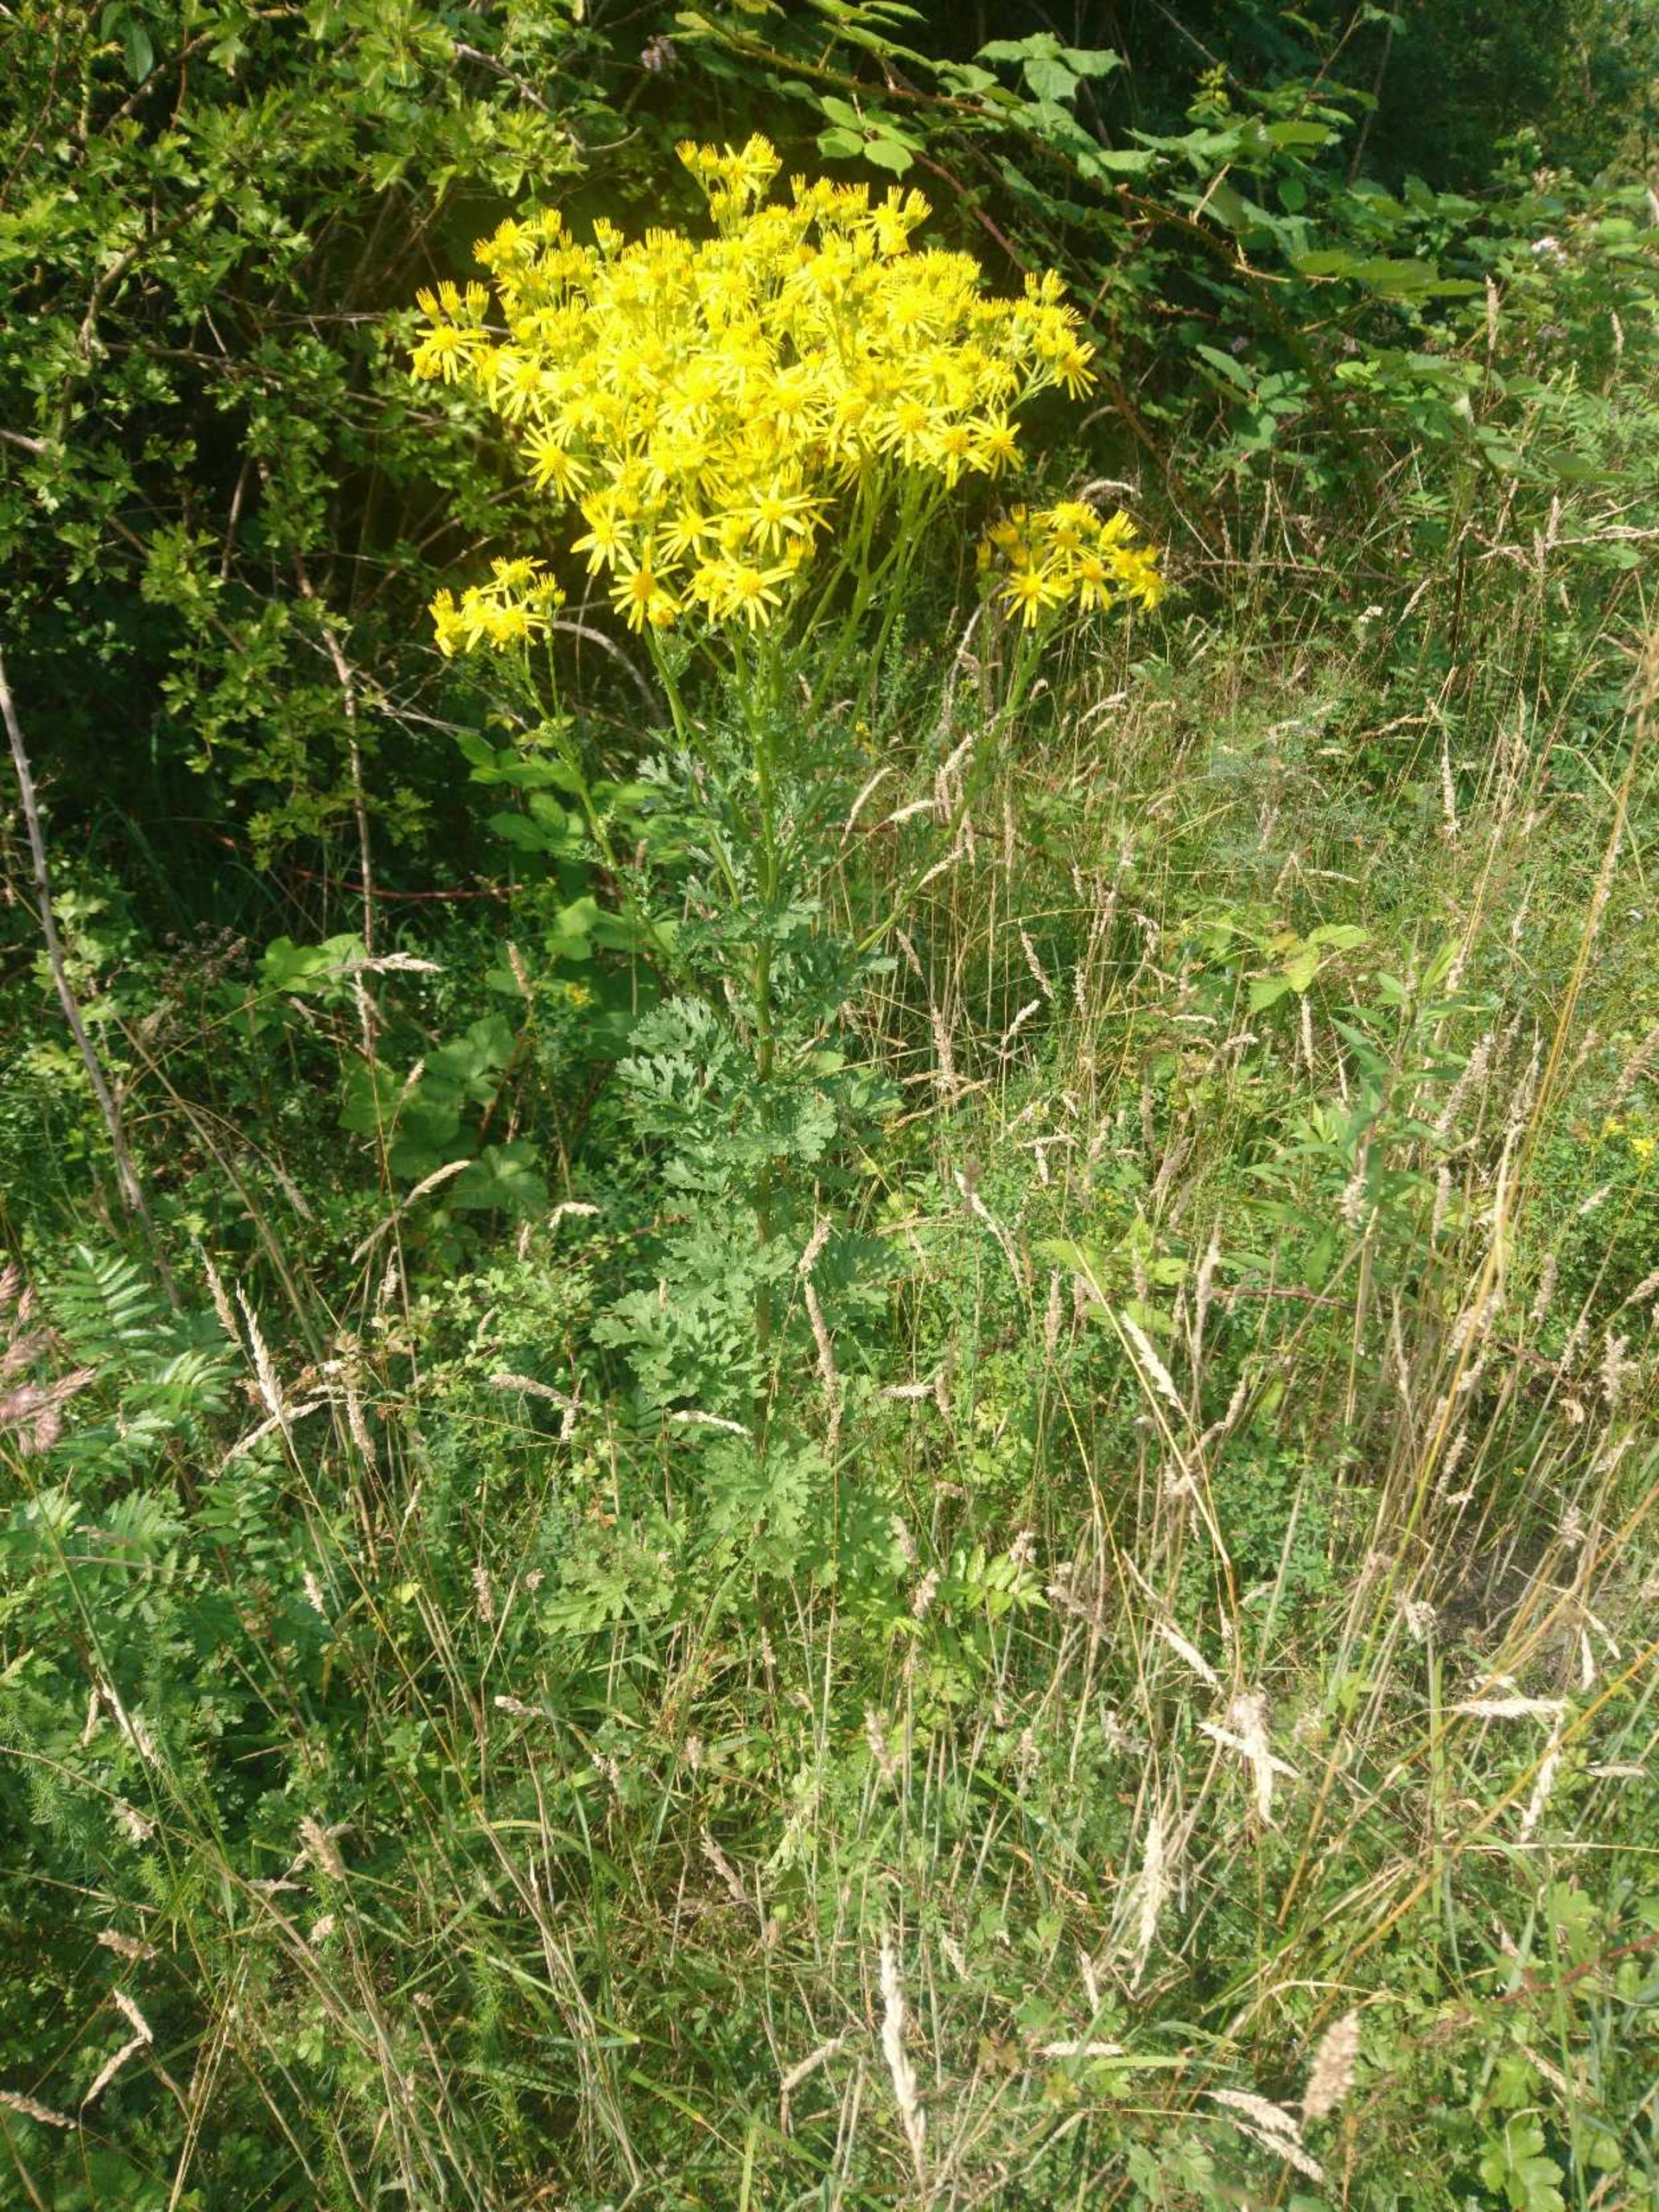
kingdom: Plantae
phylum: Tracheophyta
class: Magnoliopsida
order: Asterales
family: Asteraceae
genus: Jacobaea
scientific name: Jacobaea vulgaris
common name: Eng-brandbæger
